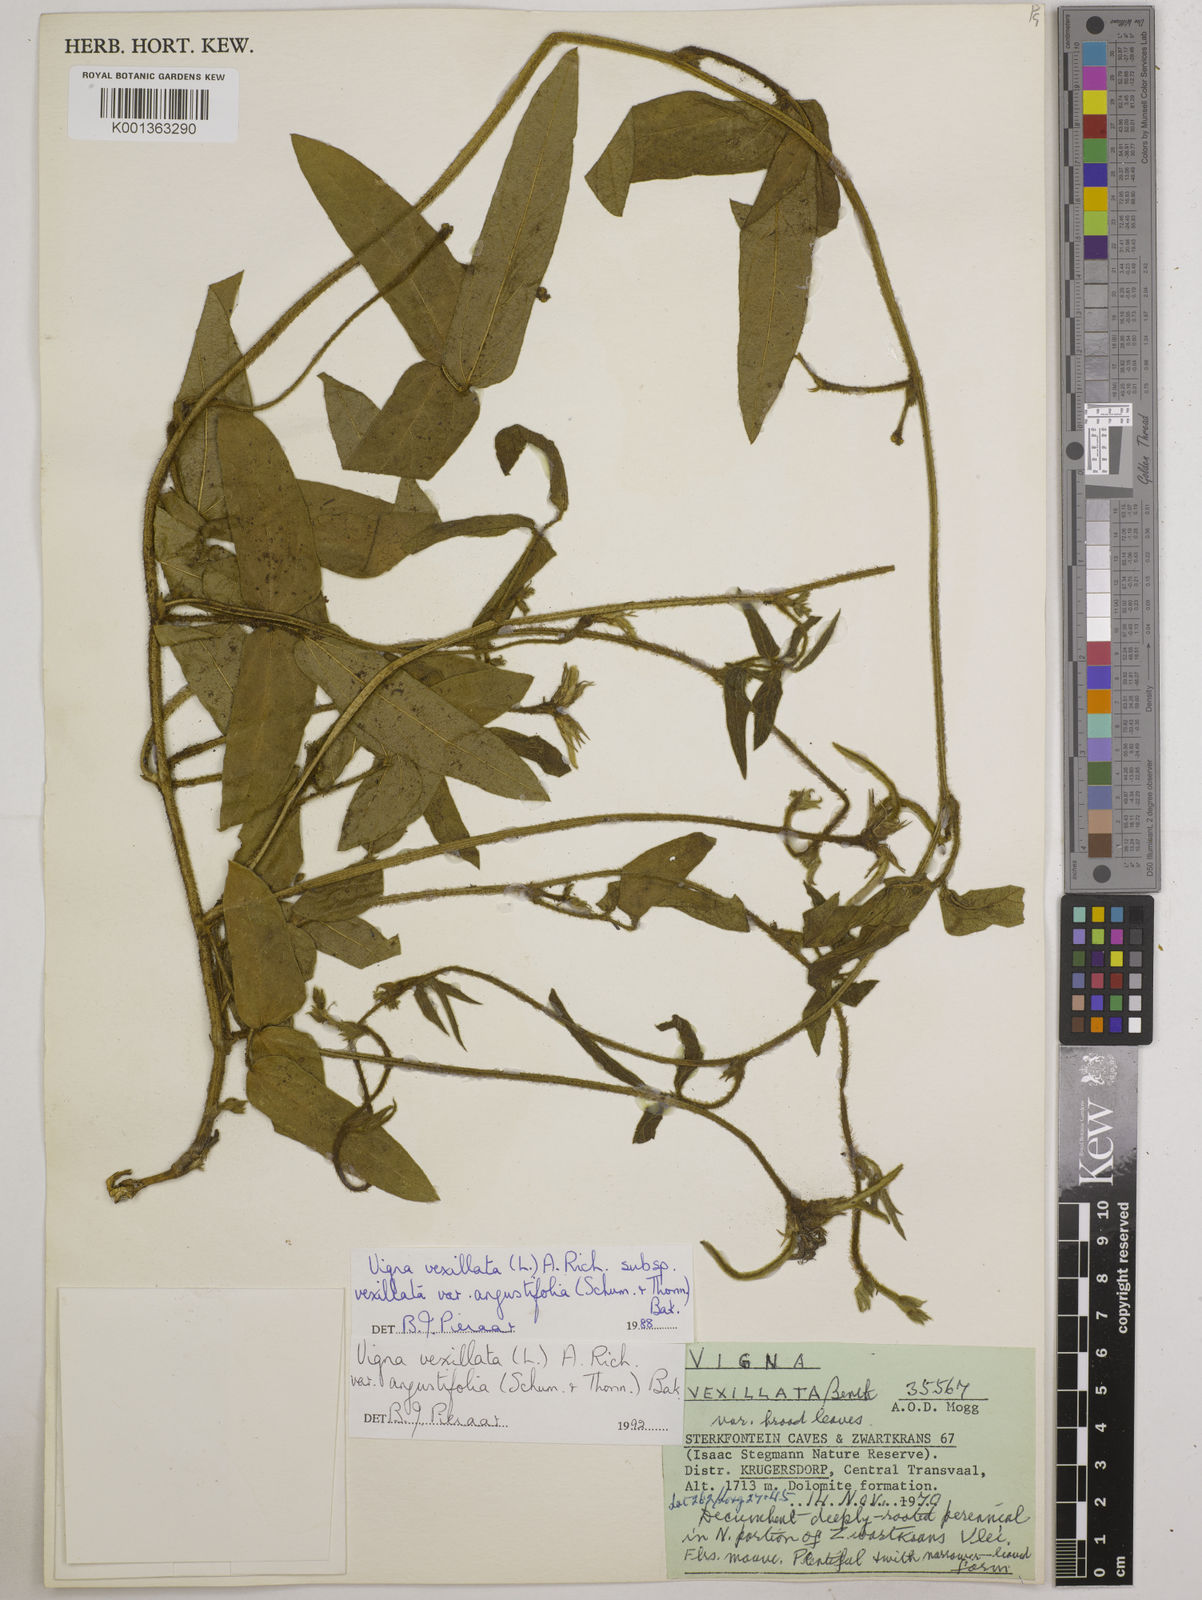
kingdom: Plantae
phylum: Tracheophyta
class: Magnoliopsida
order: Fabales
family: Fabaceae
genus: Vigna
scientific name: Vigna vexillata
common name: Zombi pea
